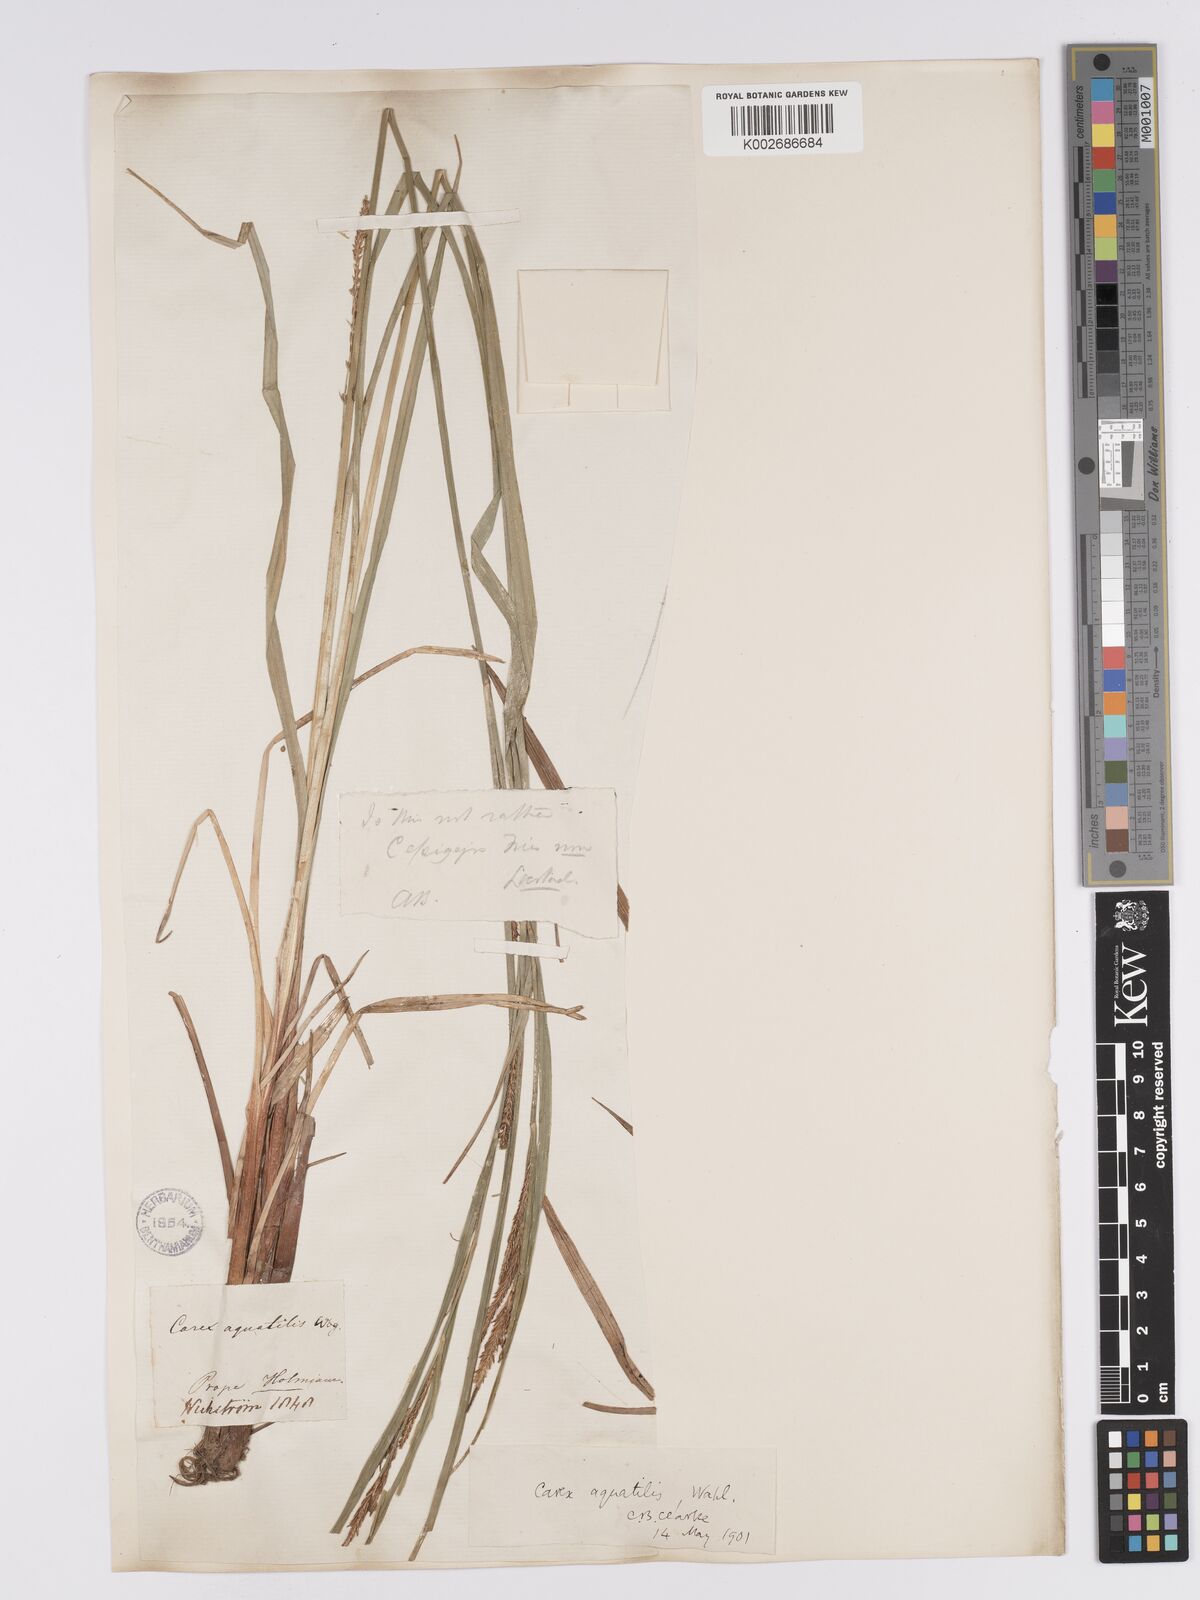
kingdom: Plantae
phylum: Tracheophyta
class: Liliopsida
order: Poales
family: Cyperaceae
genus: Carex
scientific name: Carex aquatilis
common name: Water sedge
